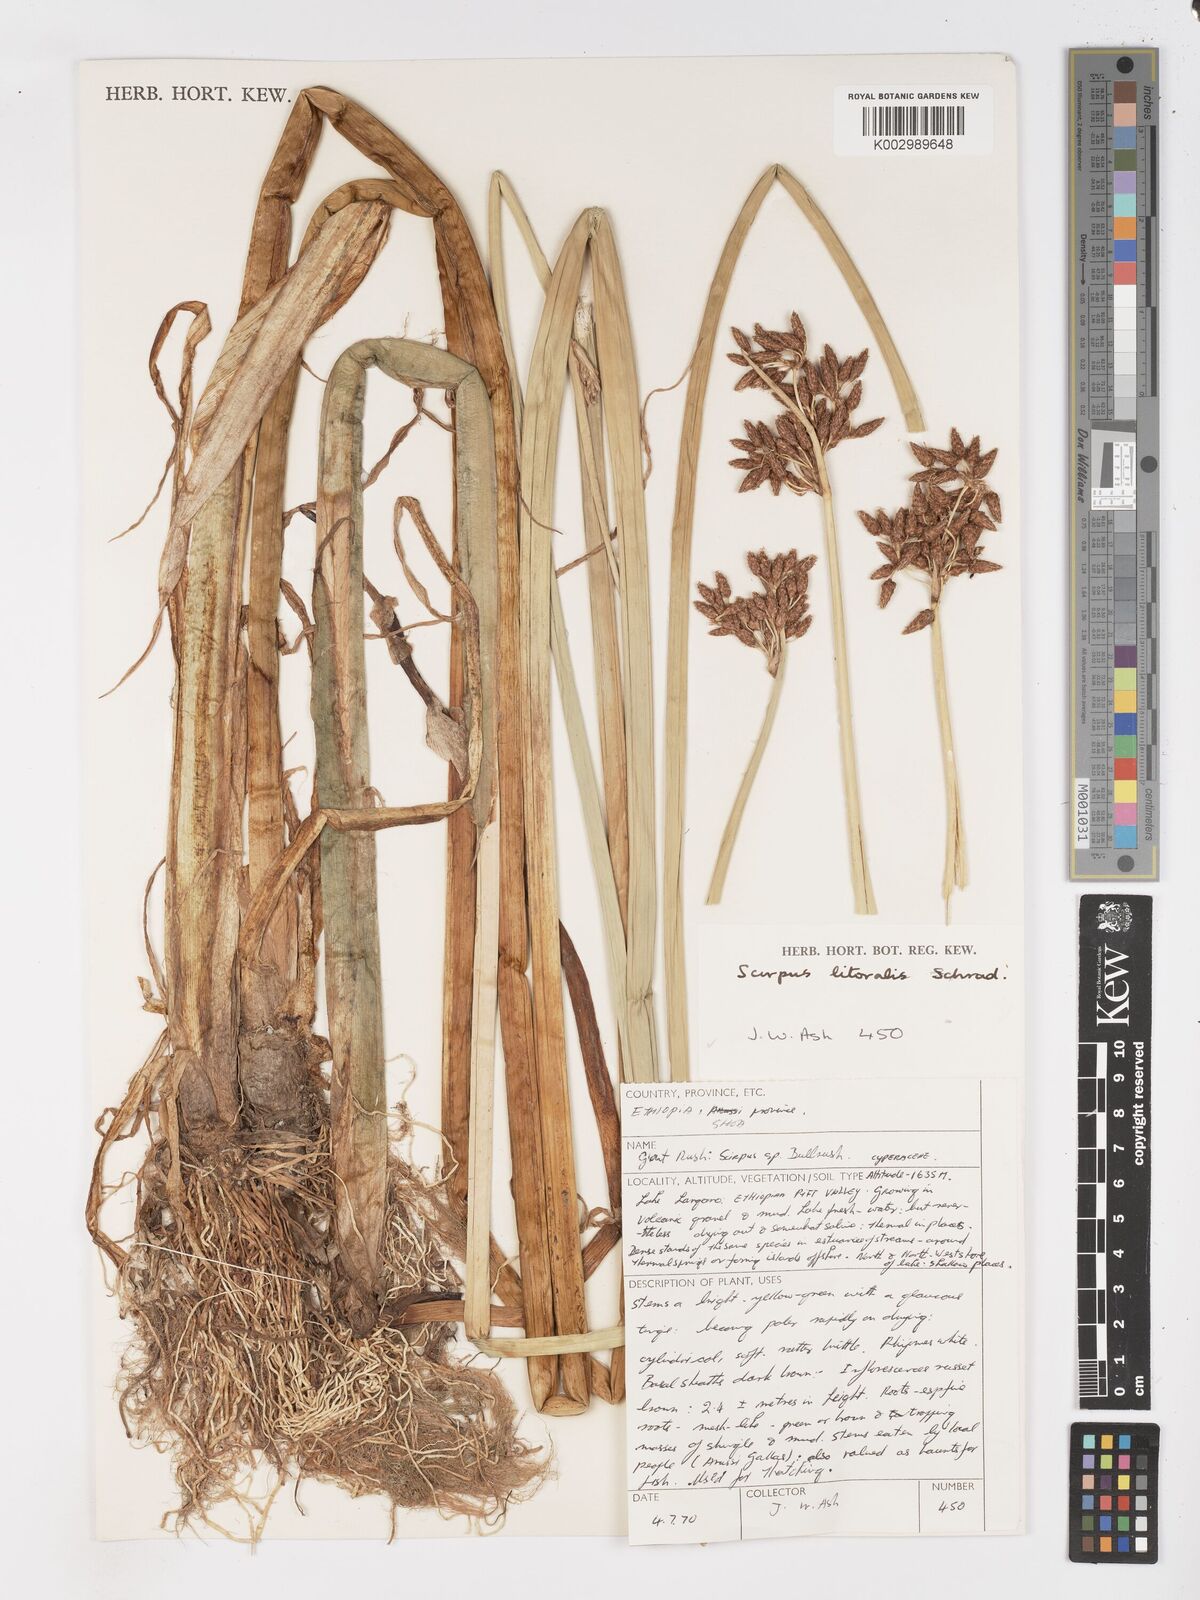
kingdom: Plantae
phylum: Tracheophyta
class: Liliopsida
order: Poales
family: Cyperaceae
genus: Schoenoplectus
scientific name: Schoenoplectus litoralis
